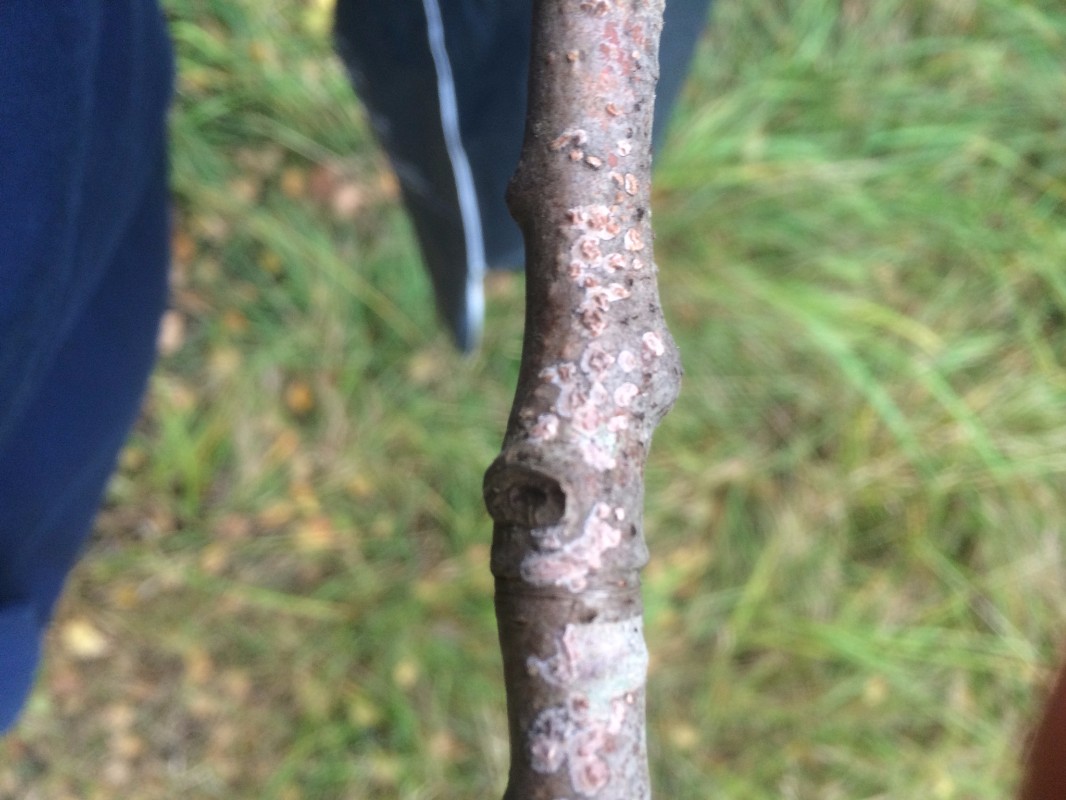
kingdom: Fungi
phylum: Basidiomycota
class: Agaricomycetes
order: Russulales
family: Peniophoraceae
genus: Peniophora
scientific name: Peniophora incarnata
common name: laksefarvet voksskind
